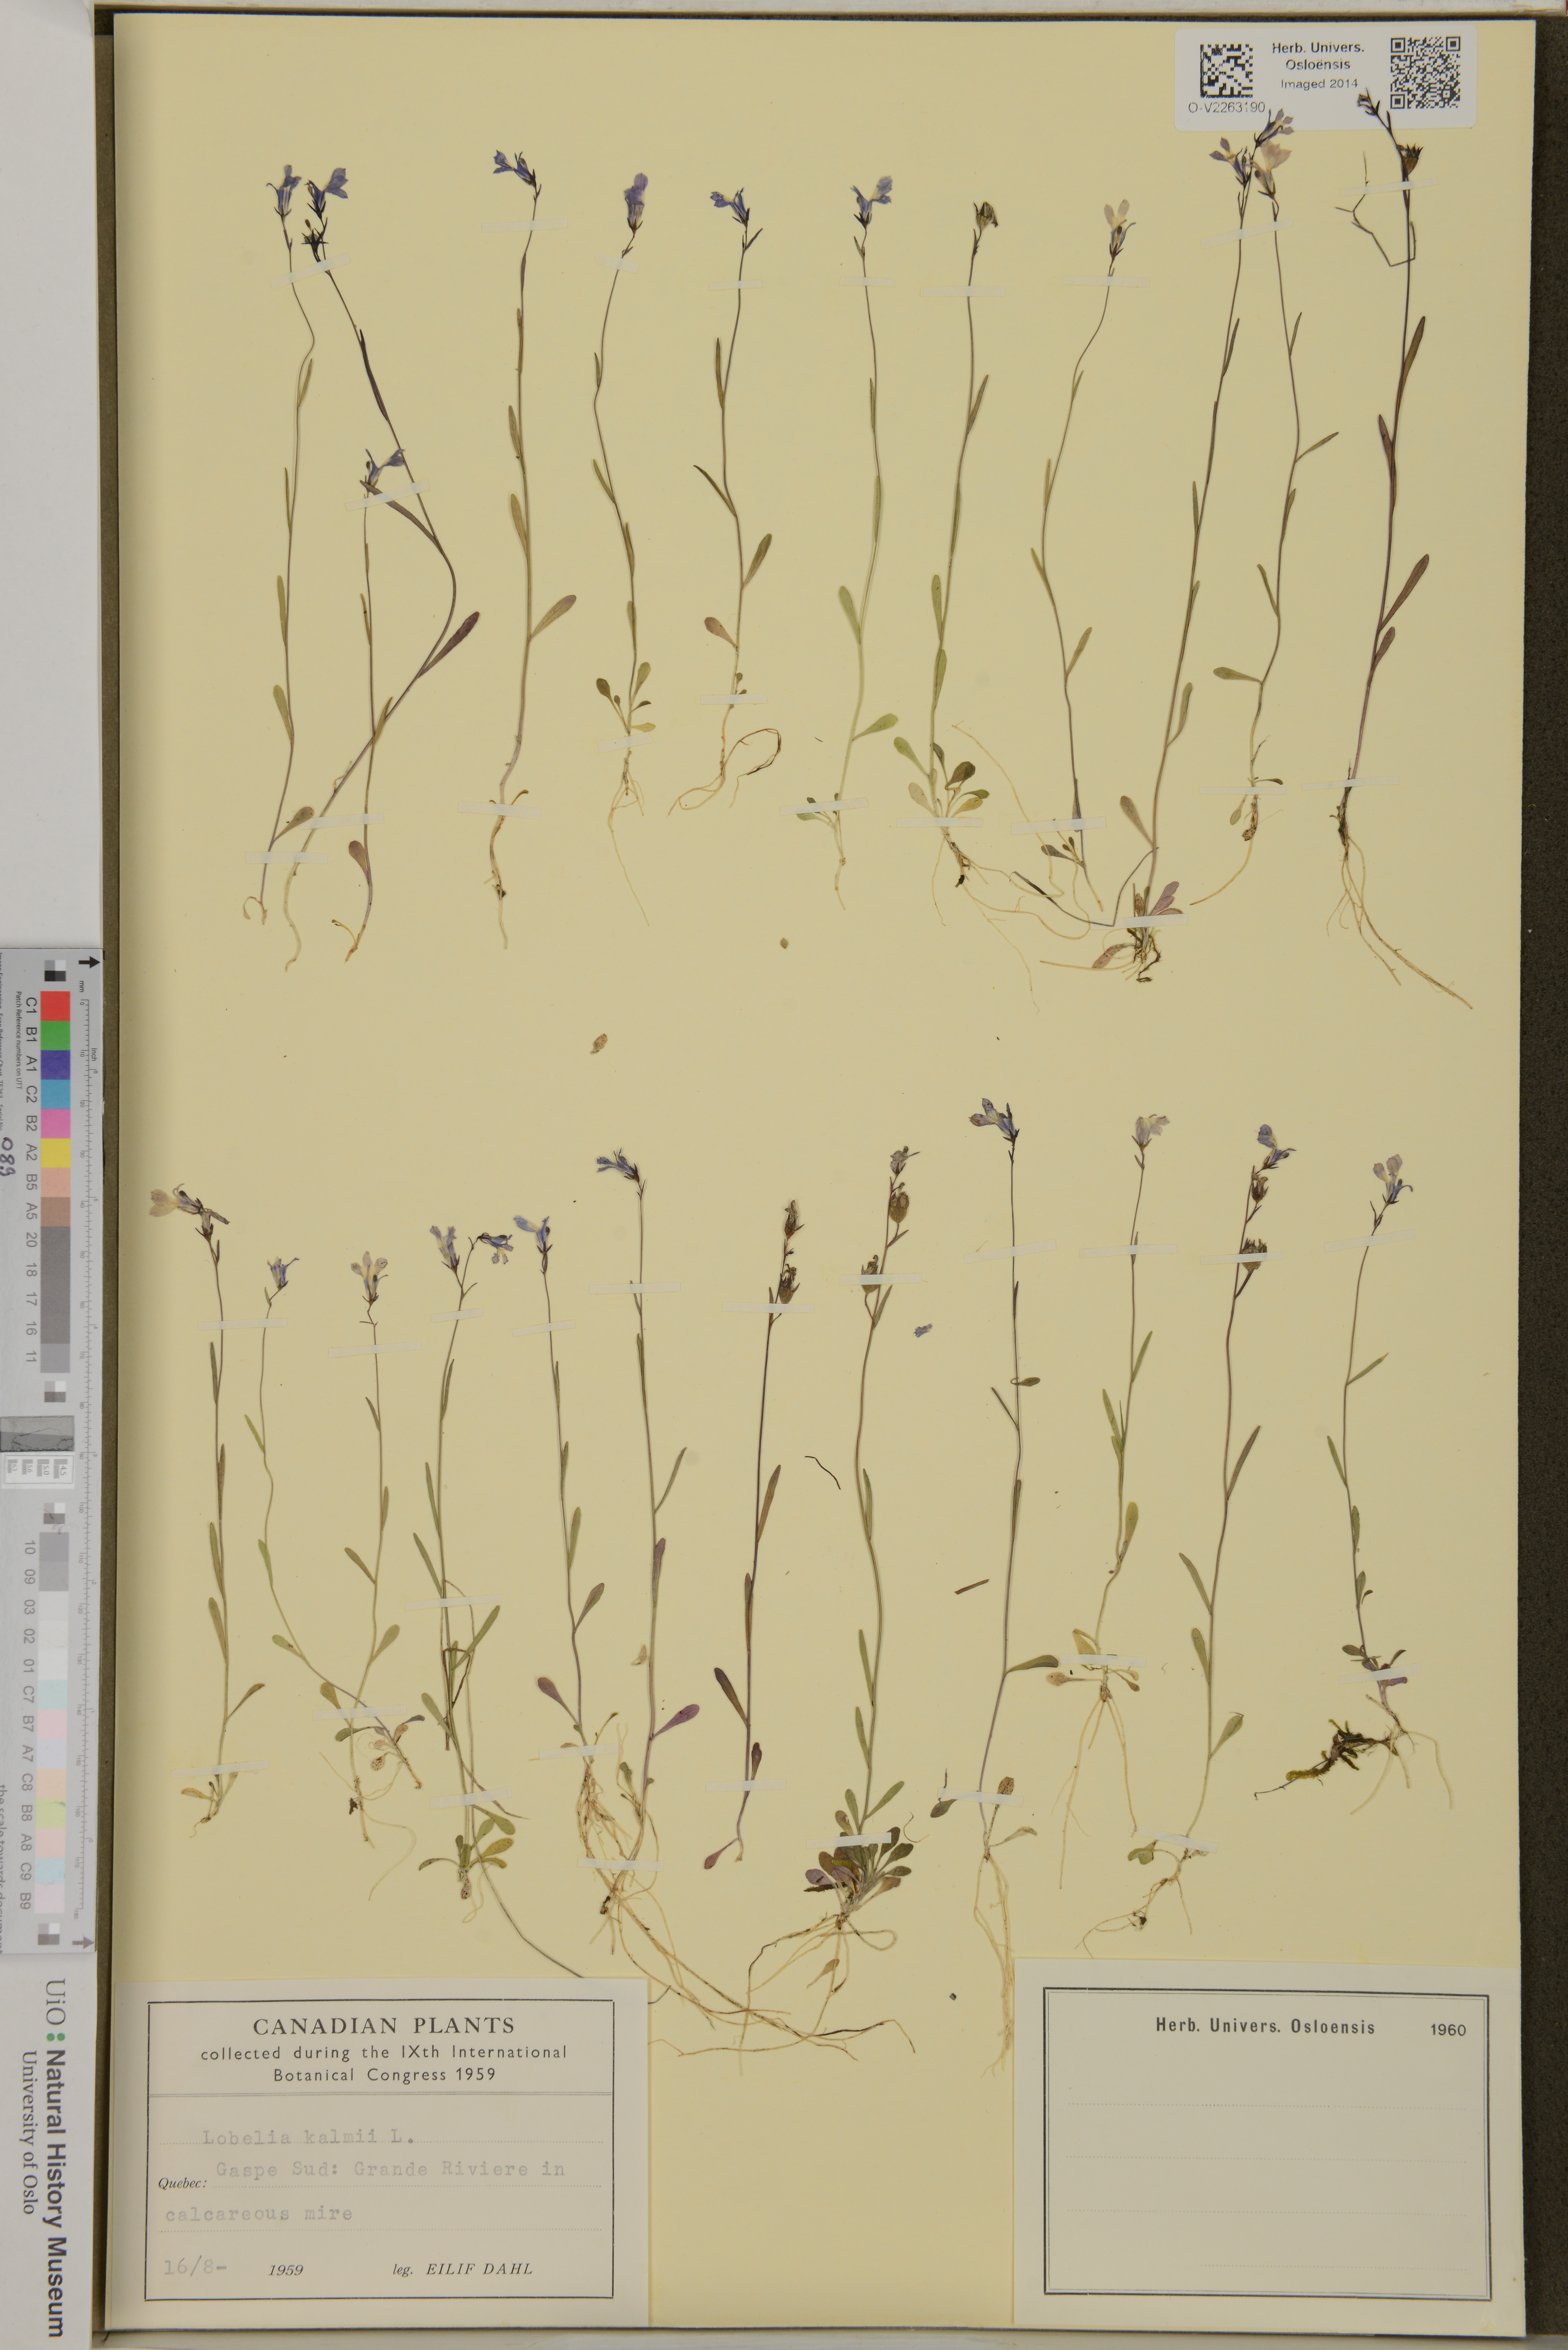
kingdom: Plantae
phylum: Tracheophyta
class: Magnoliopsida
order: Asterales
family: Campanulaceae
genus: Lobelia
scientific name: Lobelia kalmii
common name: Kalm's lobelia
